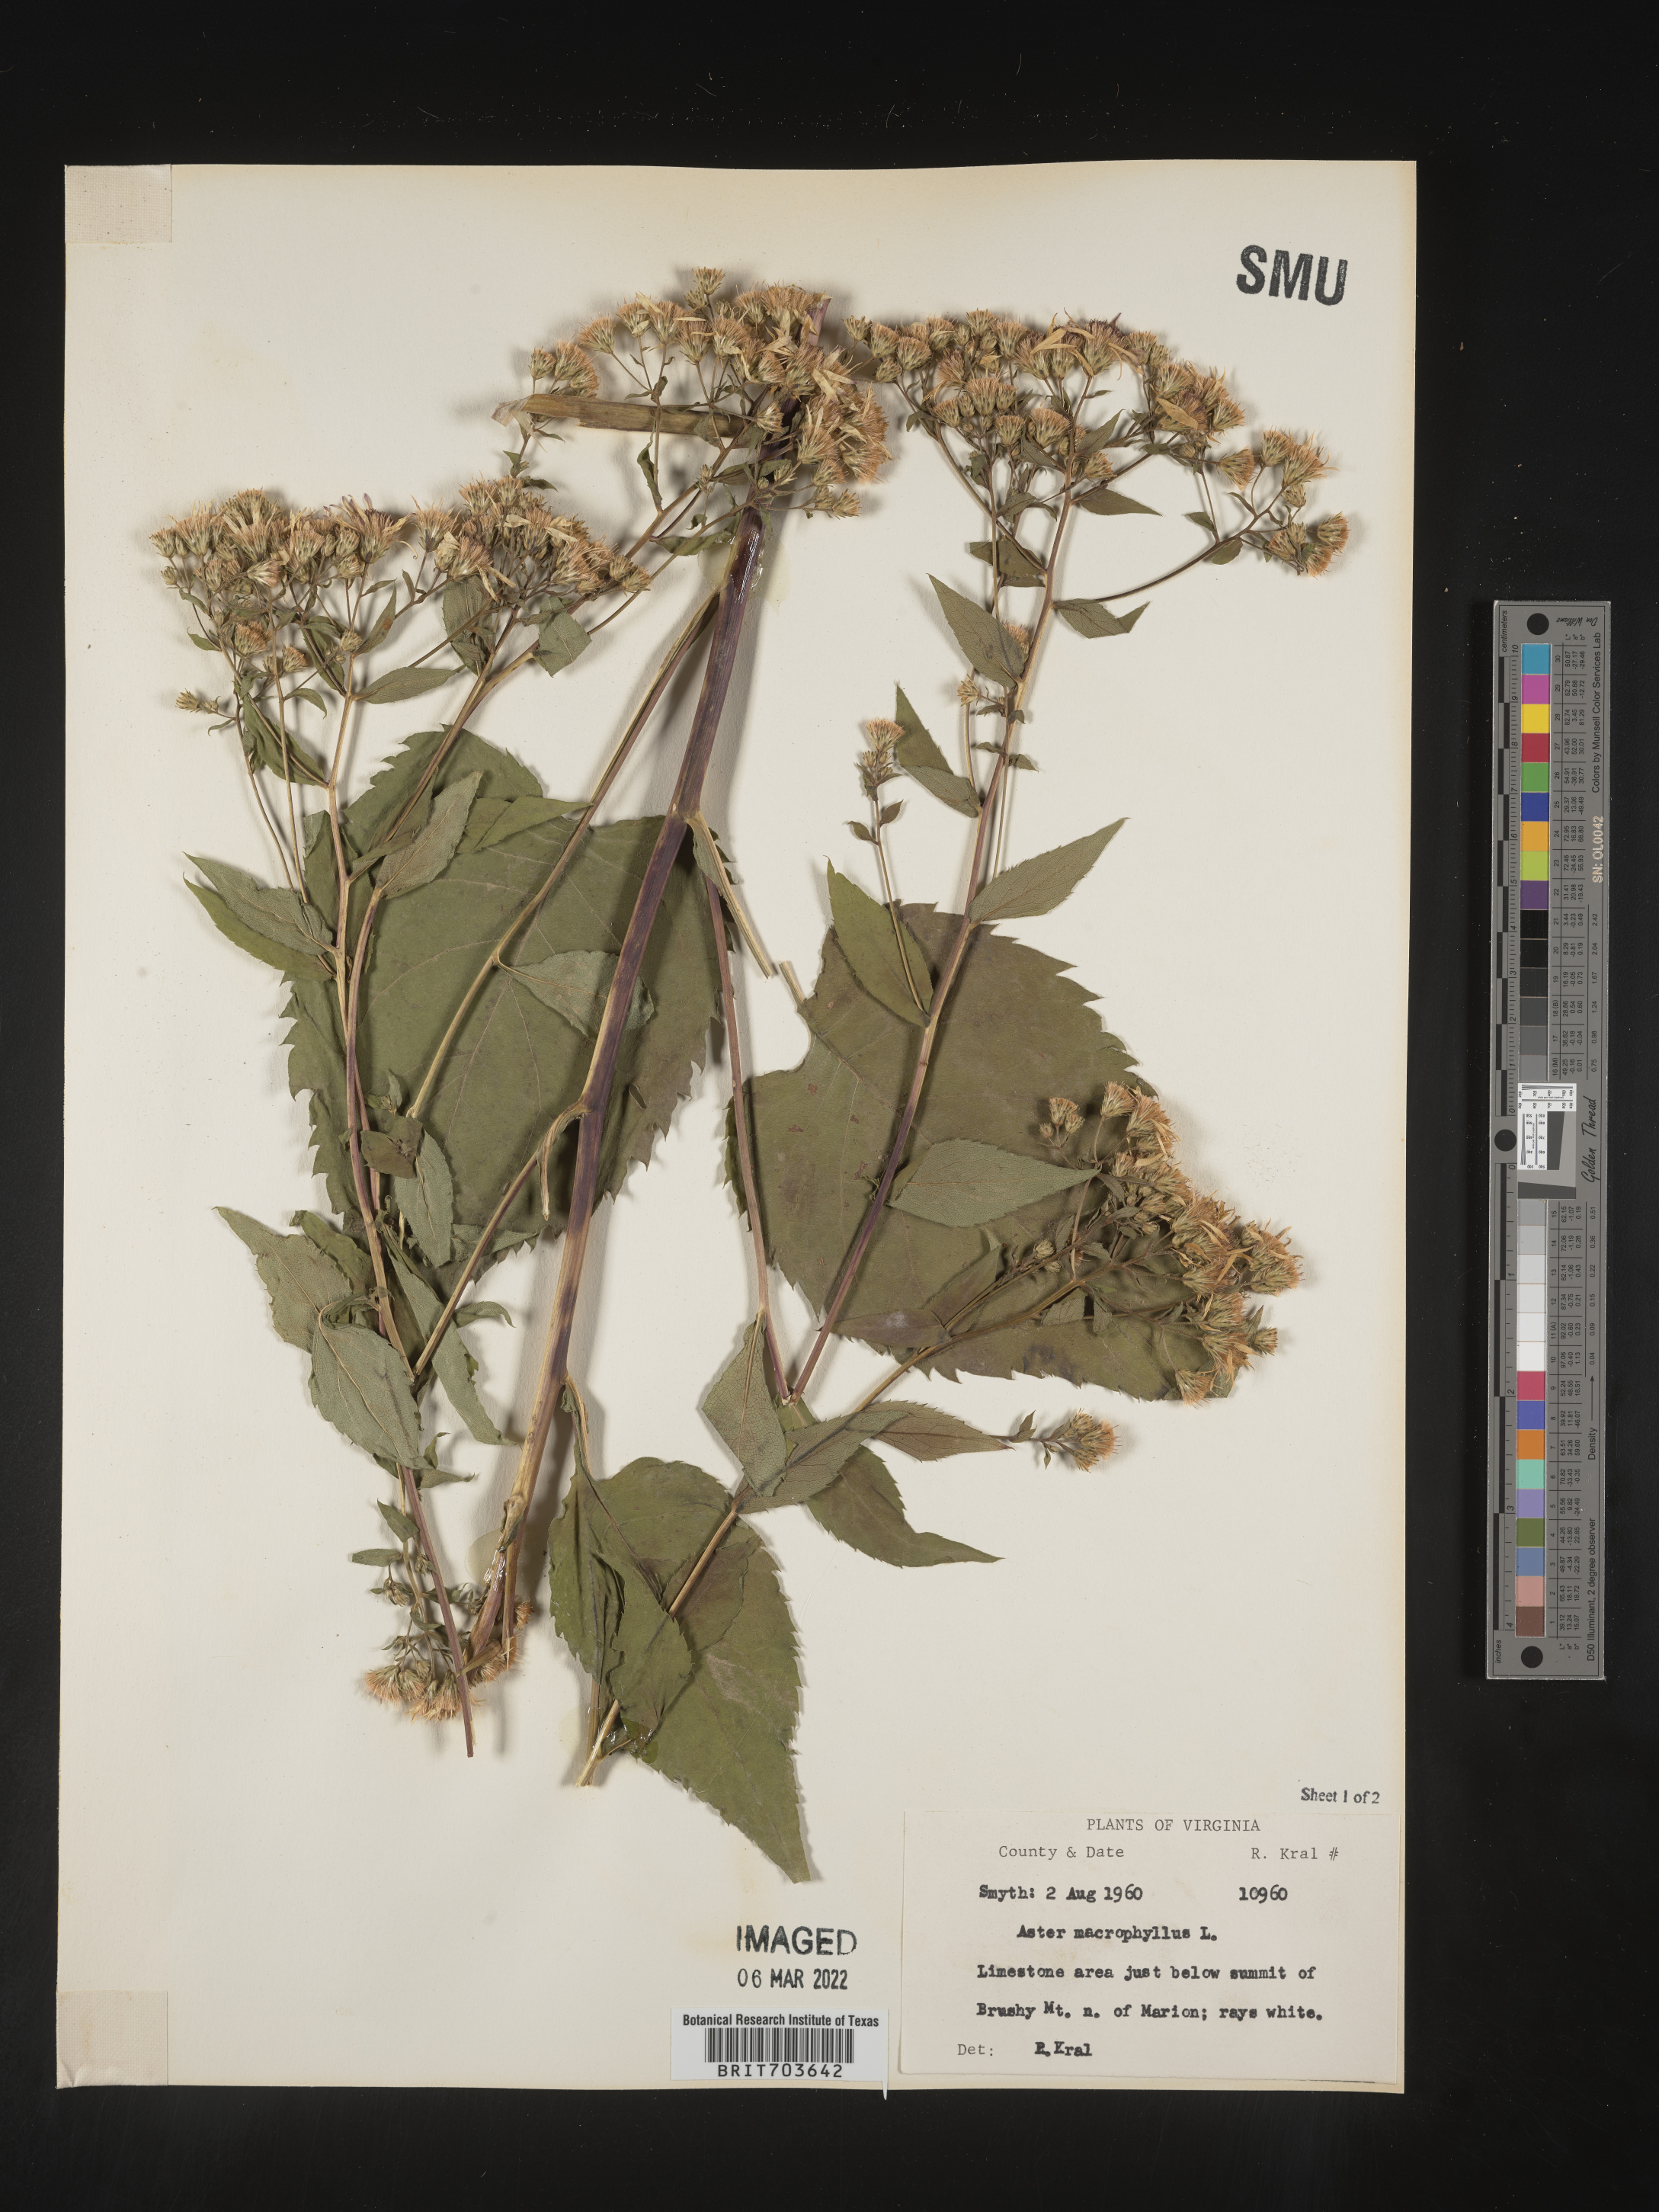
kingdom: Plantae
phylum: Tracheophyta
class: Magnoliopsida
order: Asterales
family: Asteraceae
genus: Eurybia
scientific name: Eurybia macrophylla
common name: Big-leaved aster
